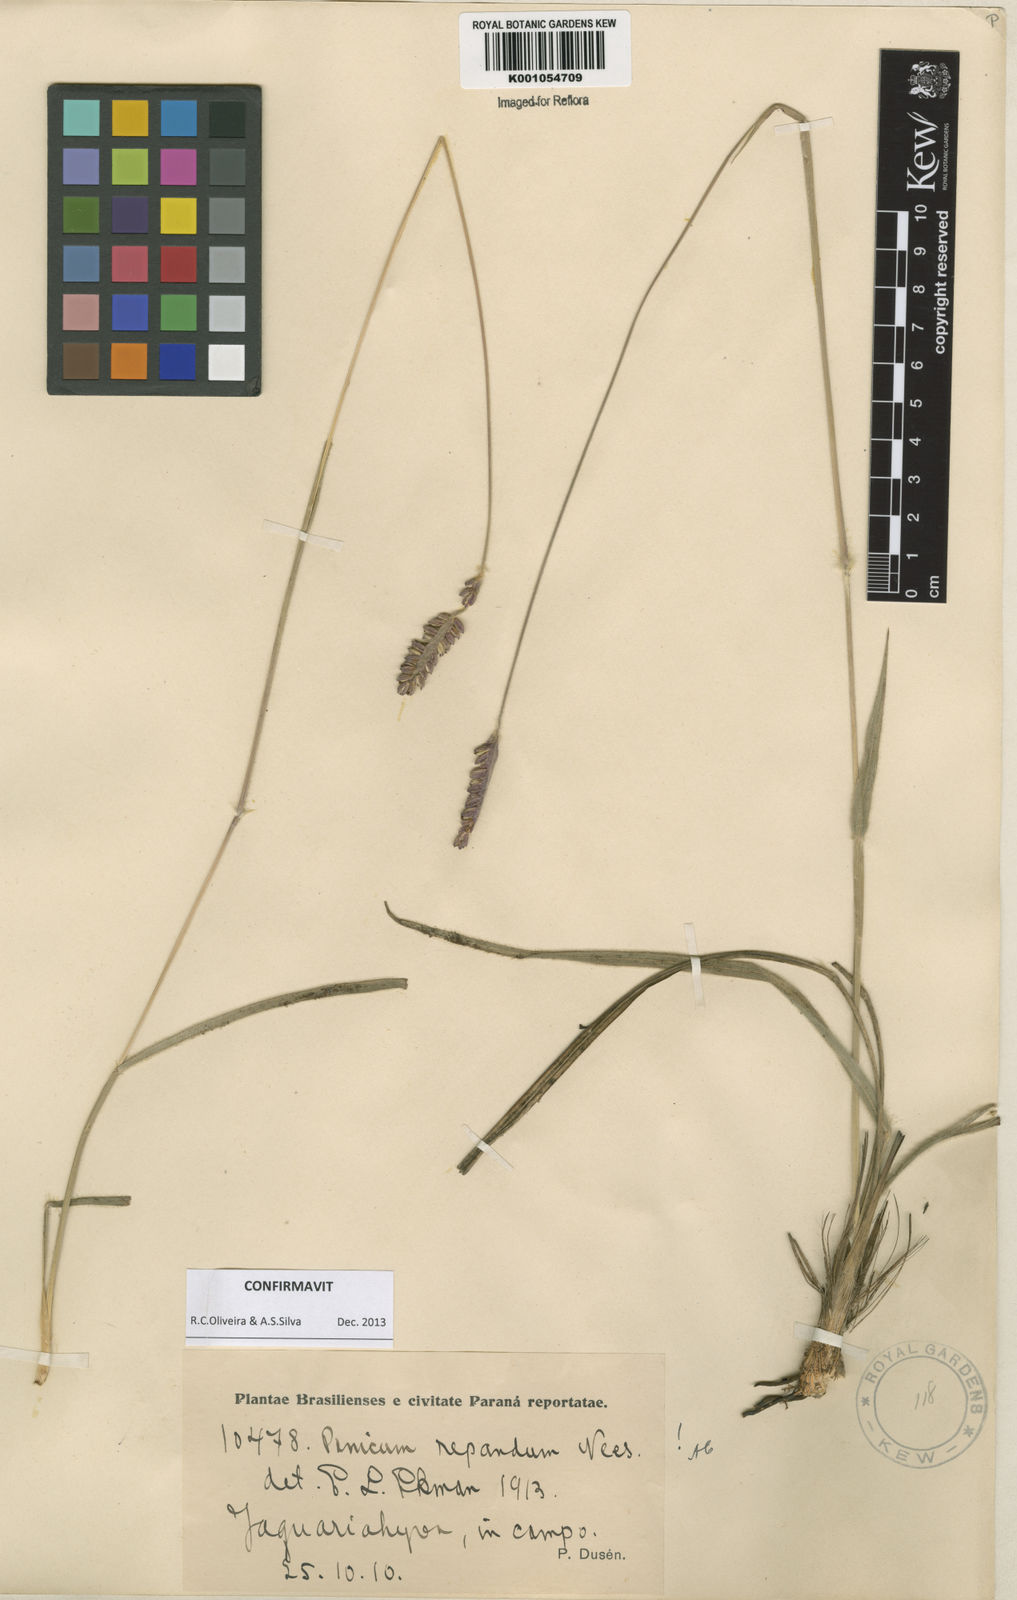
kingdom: Plantae
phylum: Tracheophyta
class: Liliopsida
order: Poales
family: Poaceae
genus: Paspalum
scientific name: Paspalum repandum
